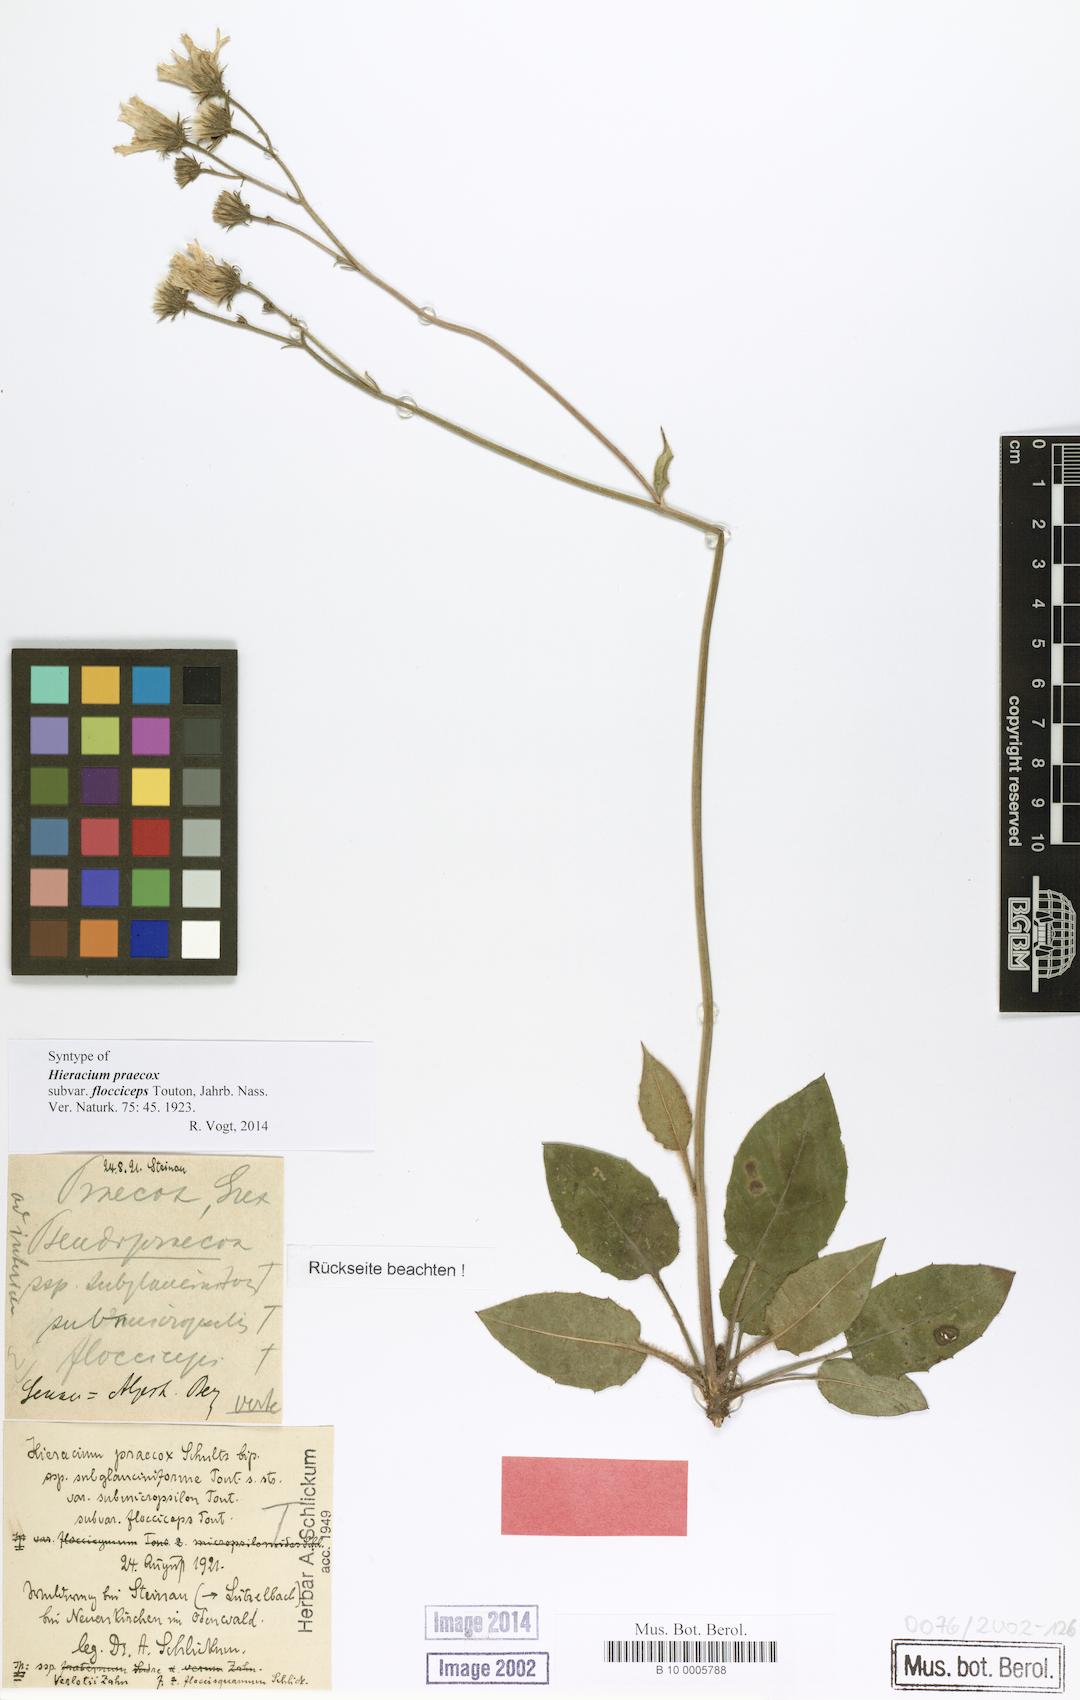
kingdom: Plantae
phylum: Tracheophyta
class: Magnoliopsida
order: Asterales
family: Asteraceae
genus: Hieracium
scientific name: Hieracium praecox
